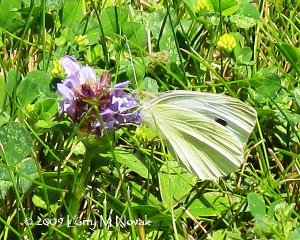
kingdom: Animalia
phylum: Arthropoda
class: Insecta
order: Lepidoptera
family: Pieridae
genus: Pieris
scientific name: Pieris rapae
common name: Cabbage White
